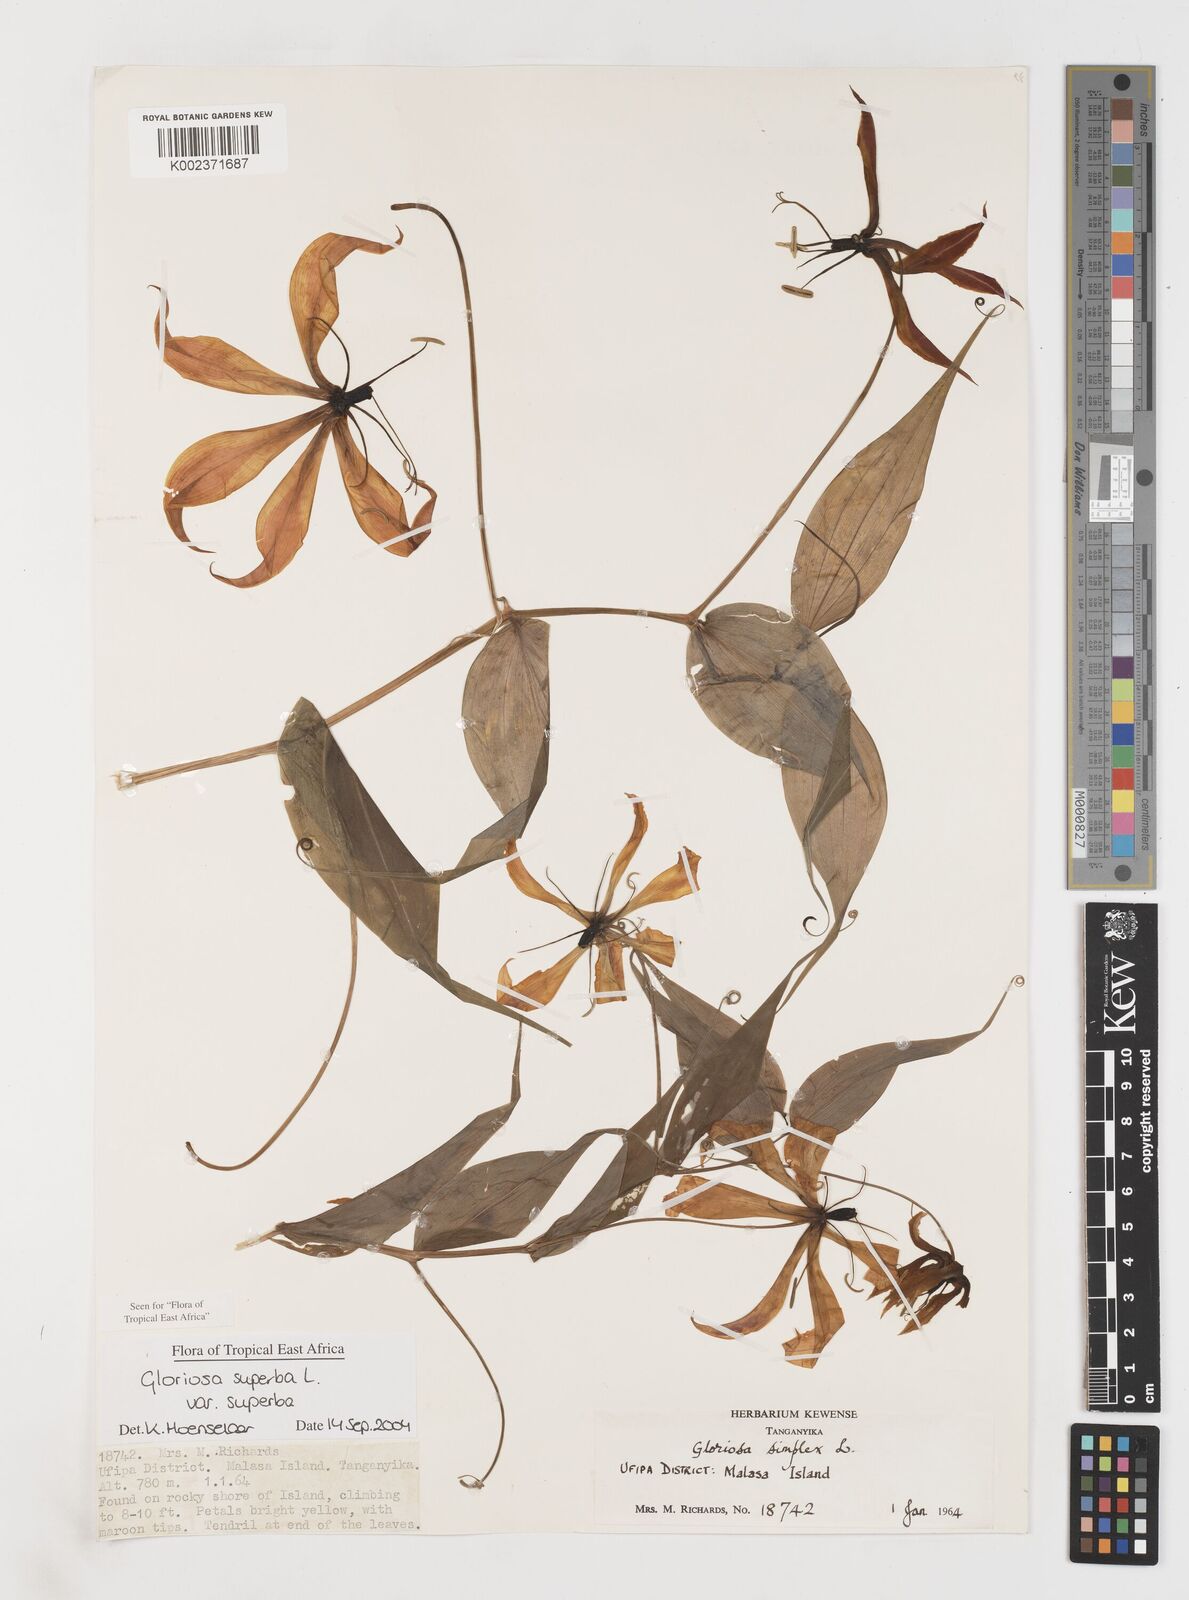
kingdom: Plantae
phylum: Tracheophyta
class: Liliopsida
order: Liliales
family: Colchicaceae
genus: Gloriosa
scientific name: Gloriosa simplex
